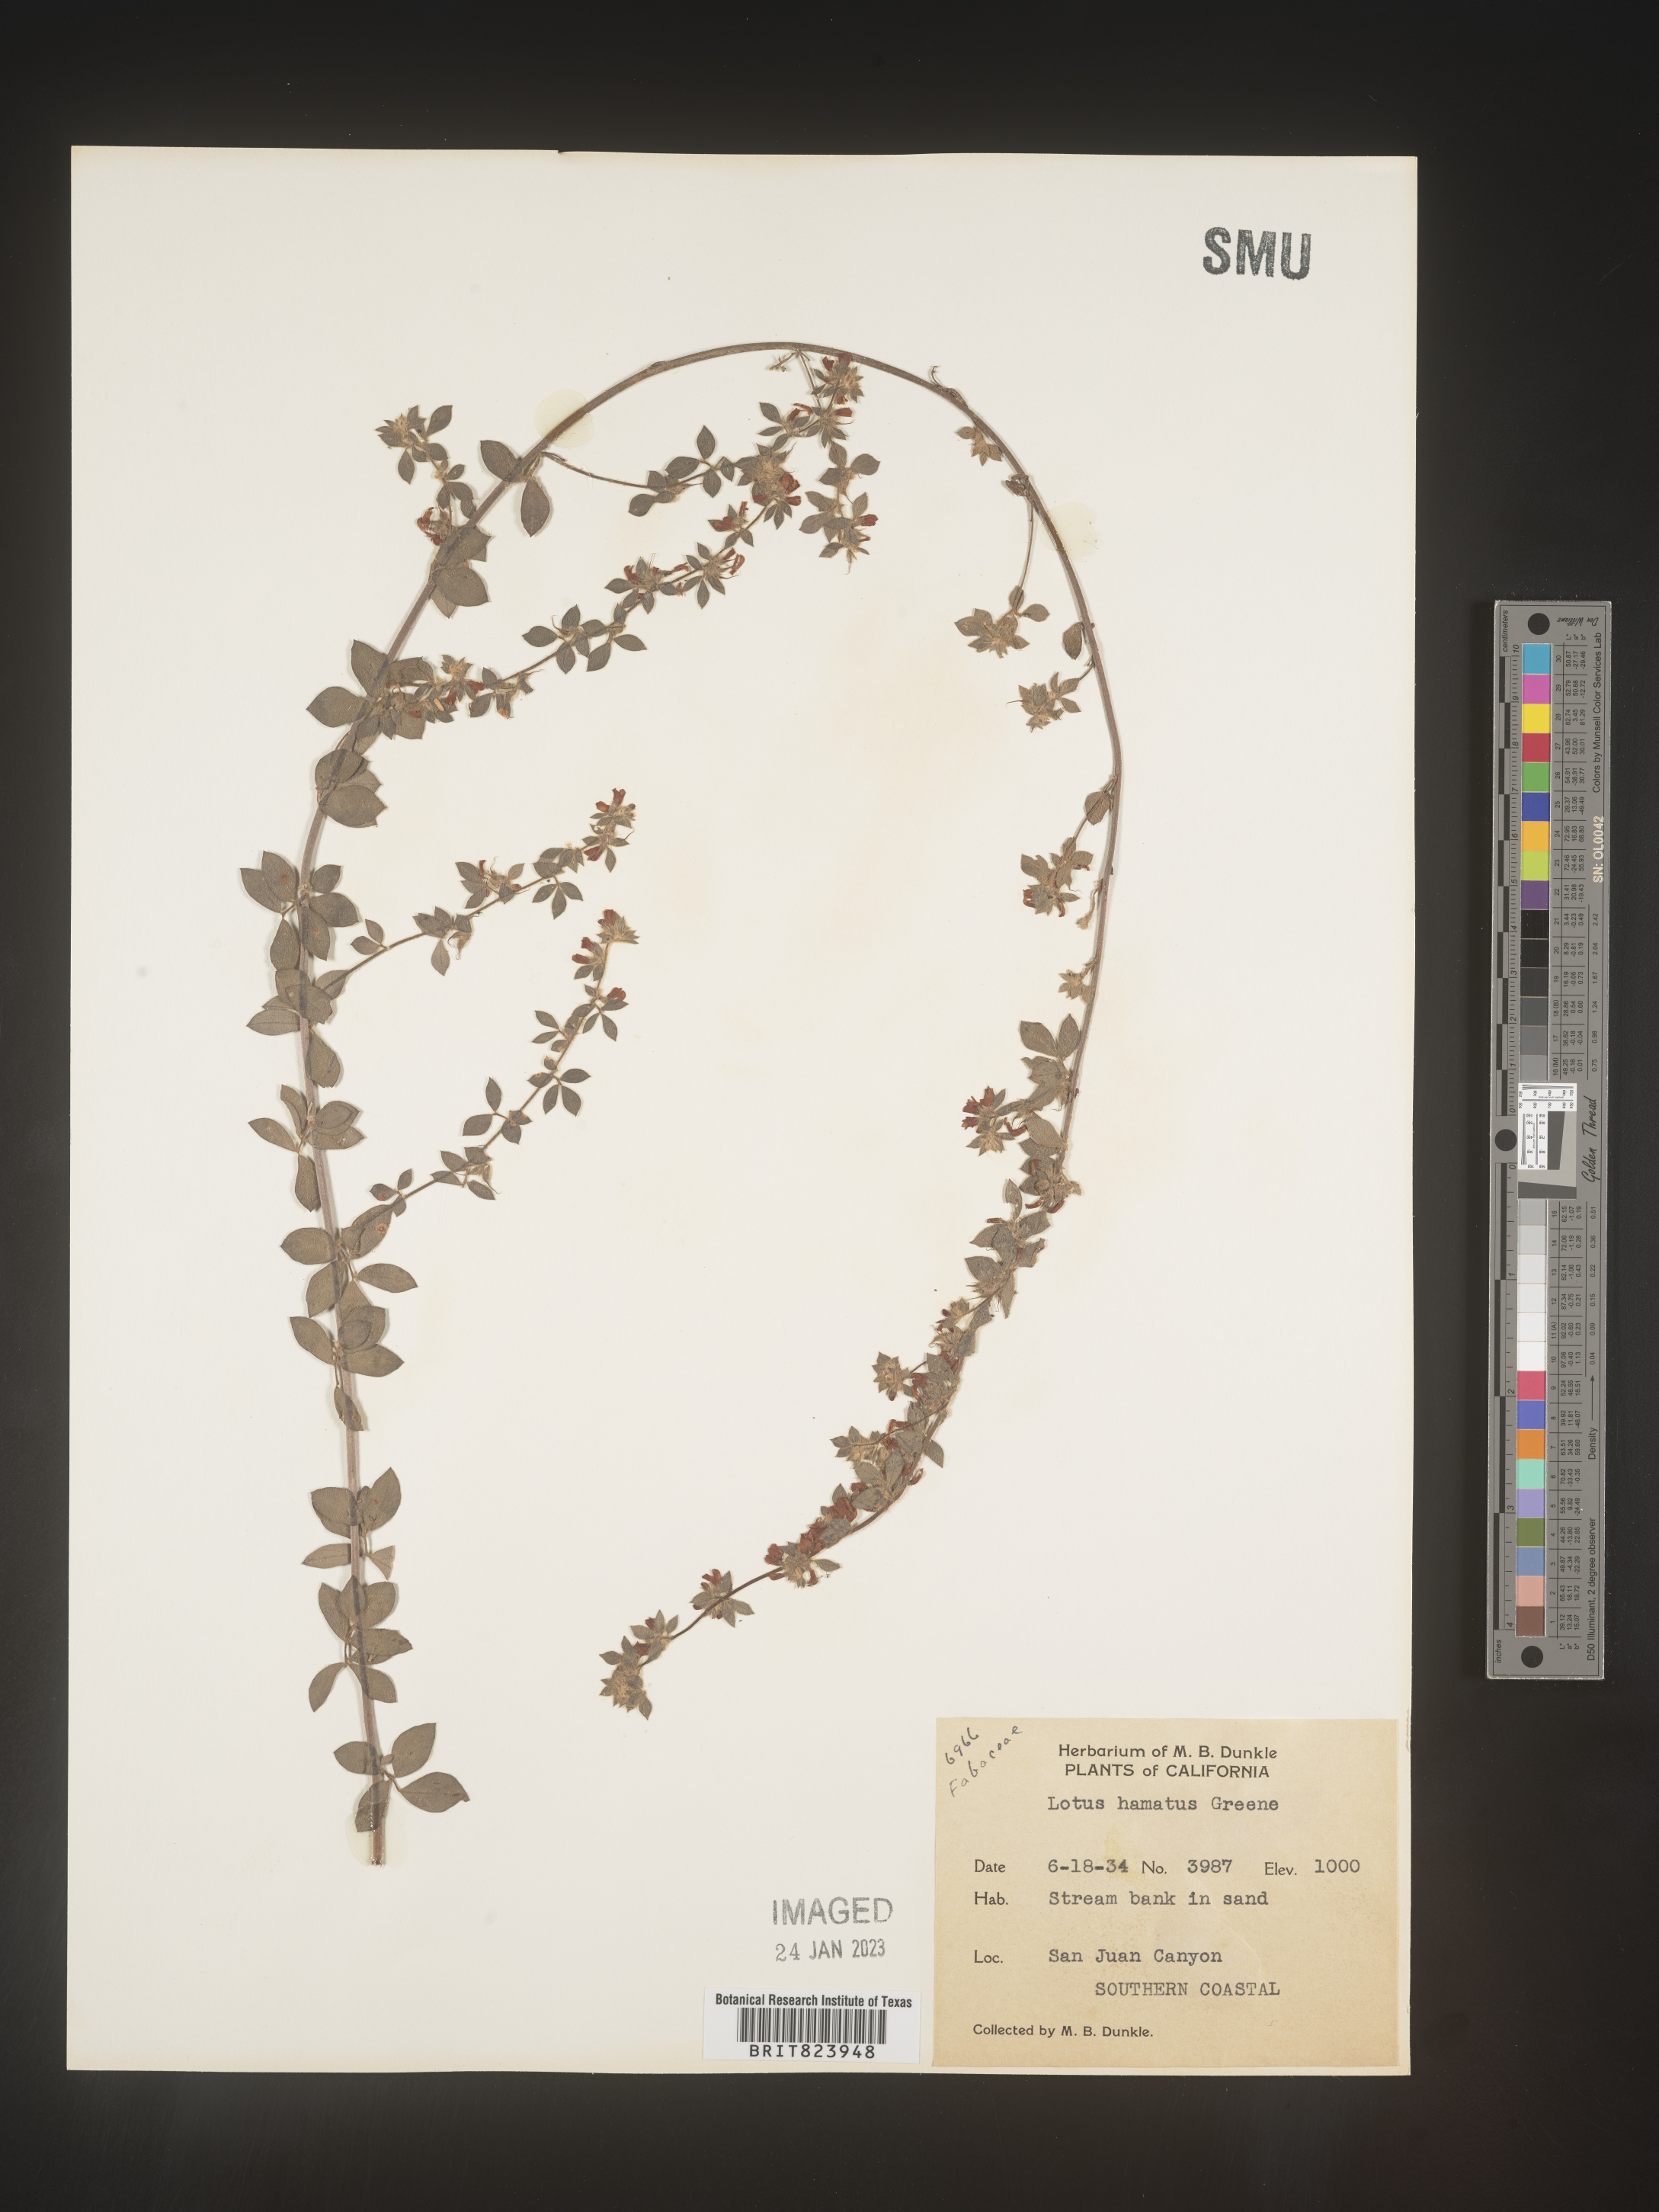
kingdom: Plantae
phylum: Tracheophyta
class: Magnoliopsida
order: Fabales
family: Fabaceae
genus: Lotus
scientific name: Lotus
